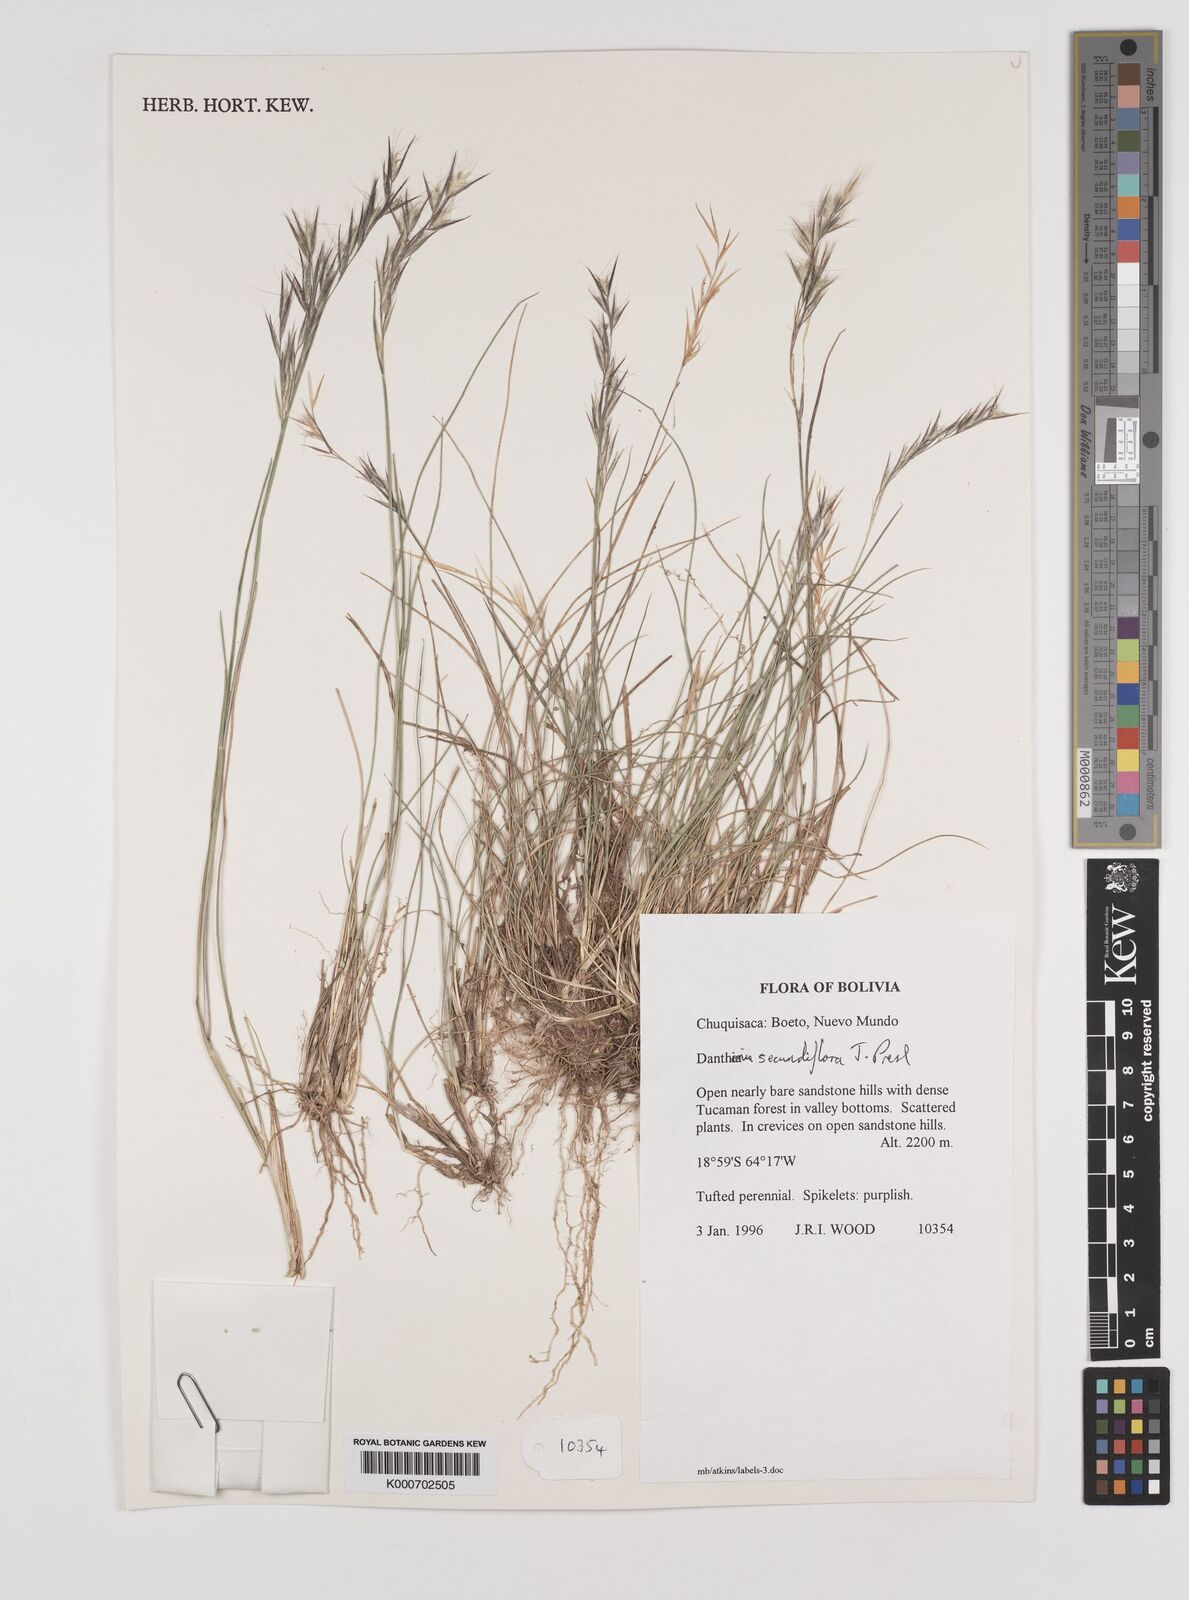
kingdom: Plantae
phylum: Tracheophyta
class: Liliopsida
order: Poales
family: Poaceae
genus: Danthonia
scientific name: Danthonia secundiflora
